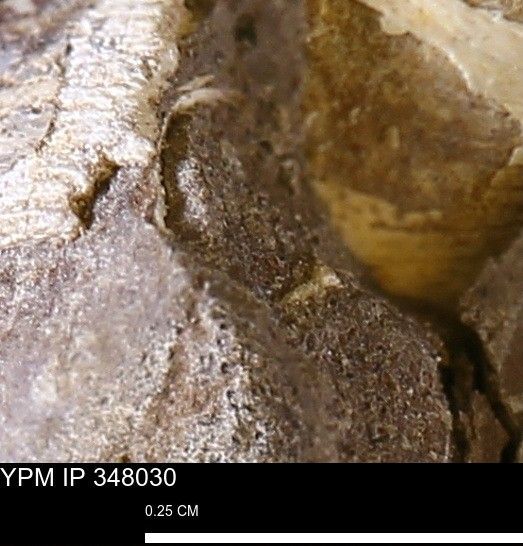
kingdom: Animalia
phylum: Mollusca
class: Bivalvia
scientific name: Bivalvia
